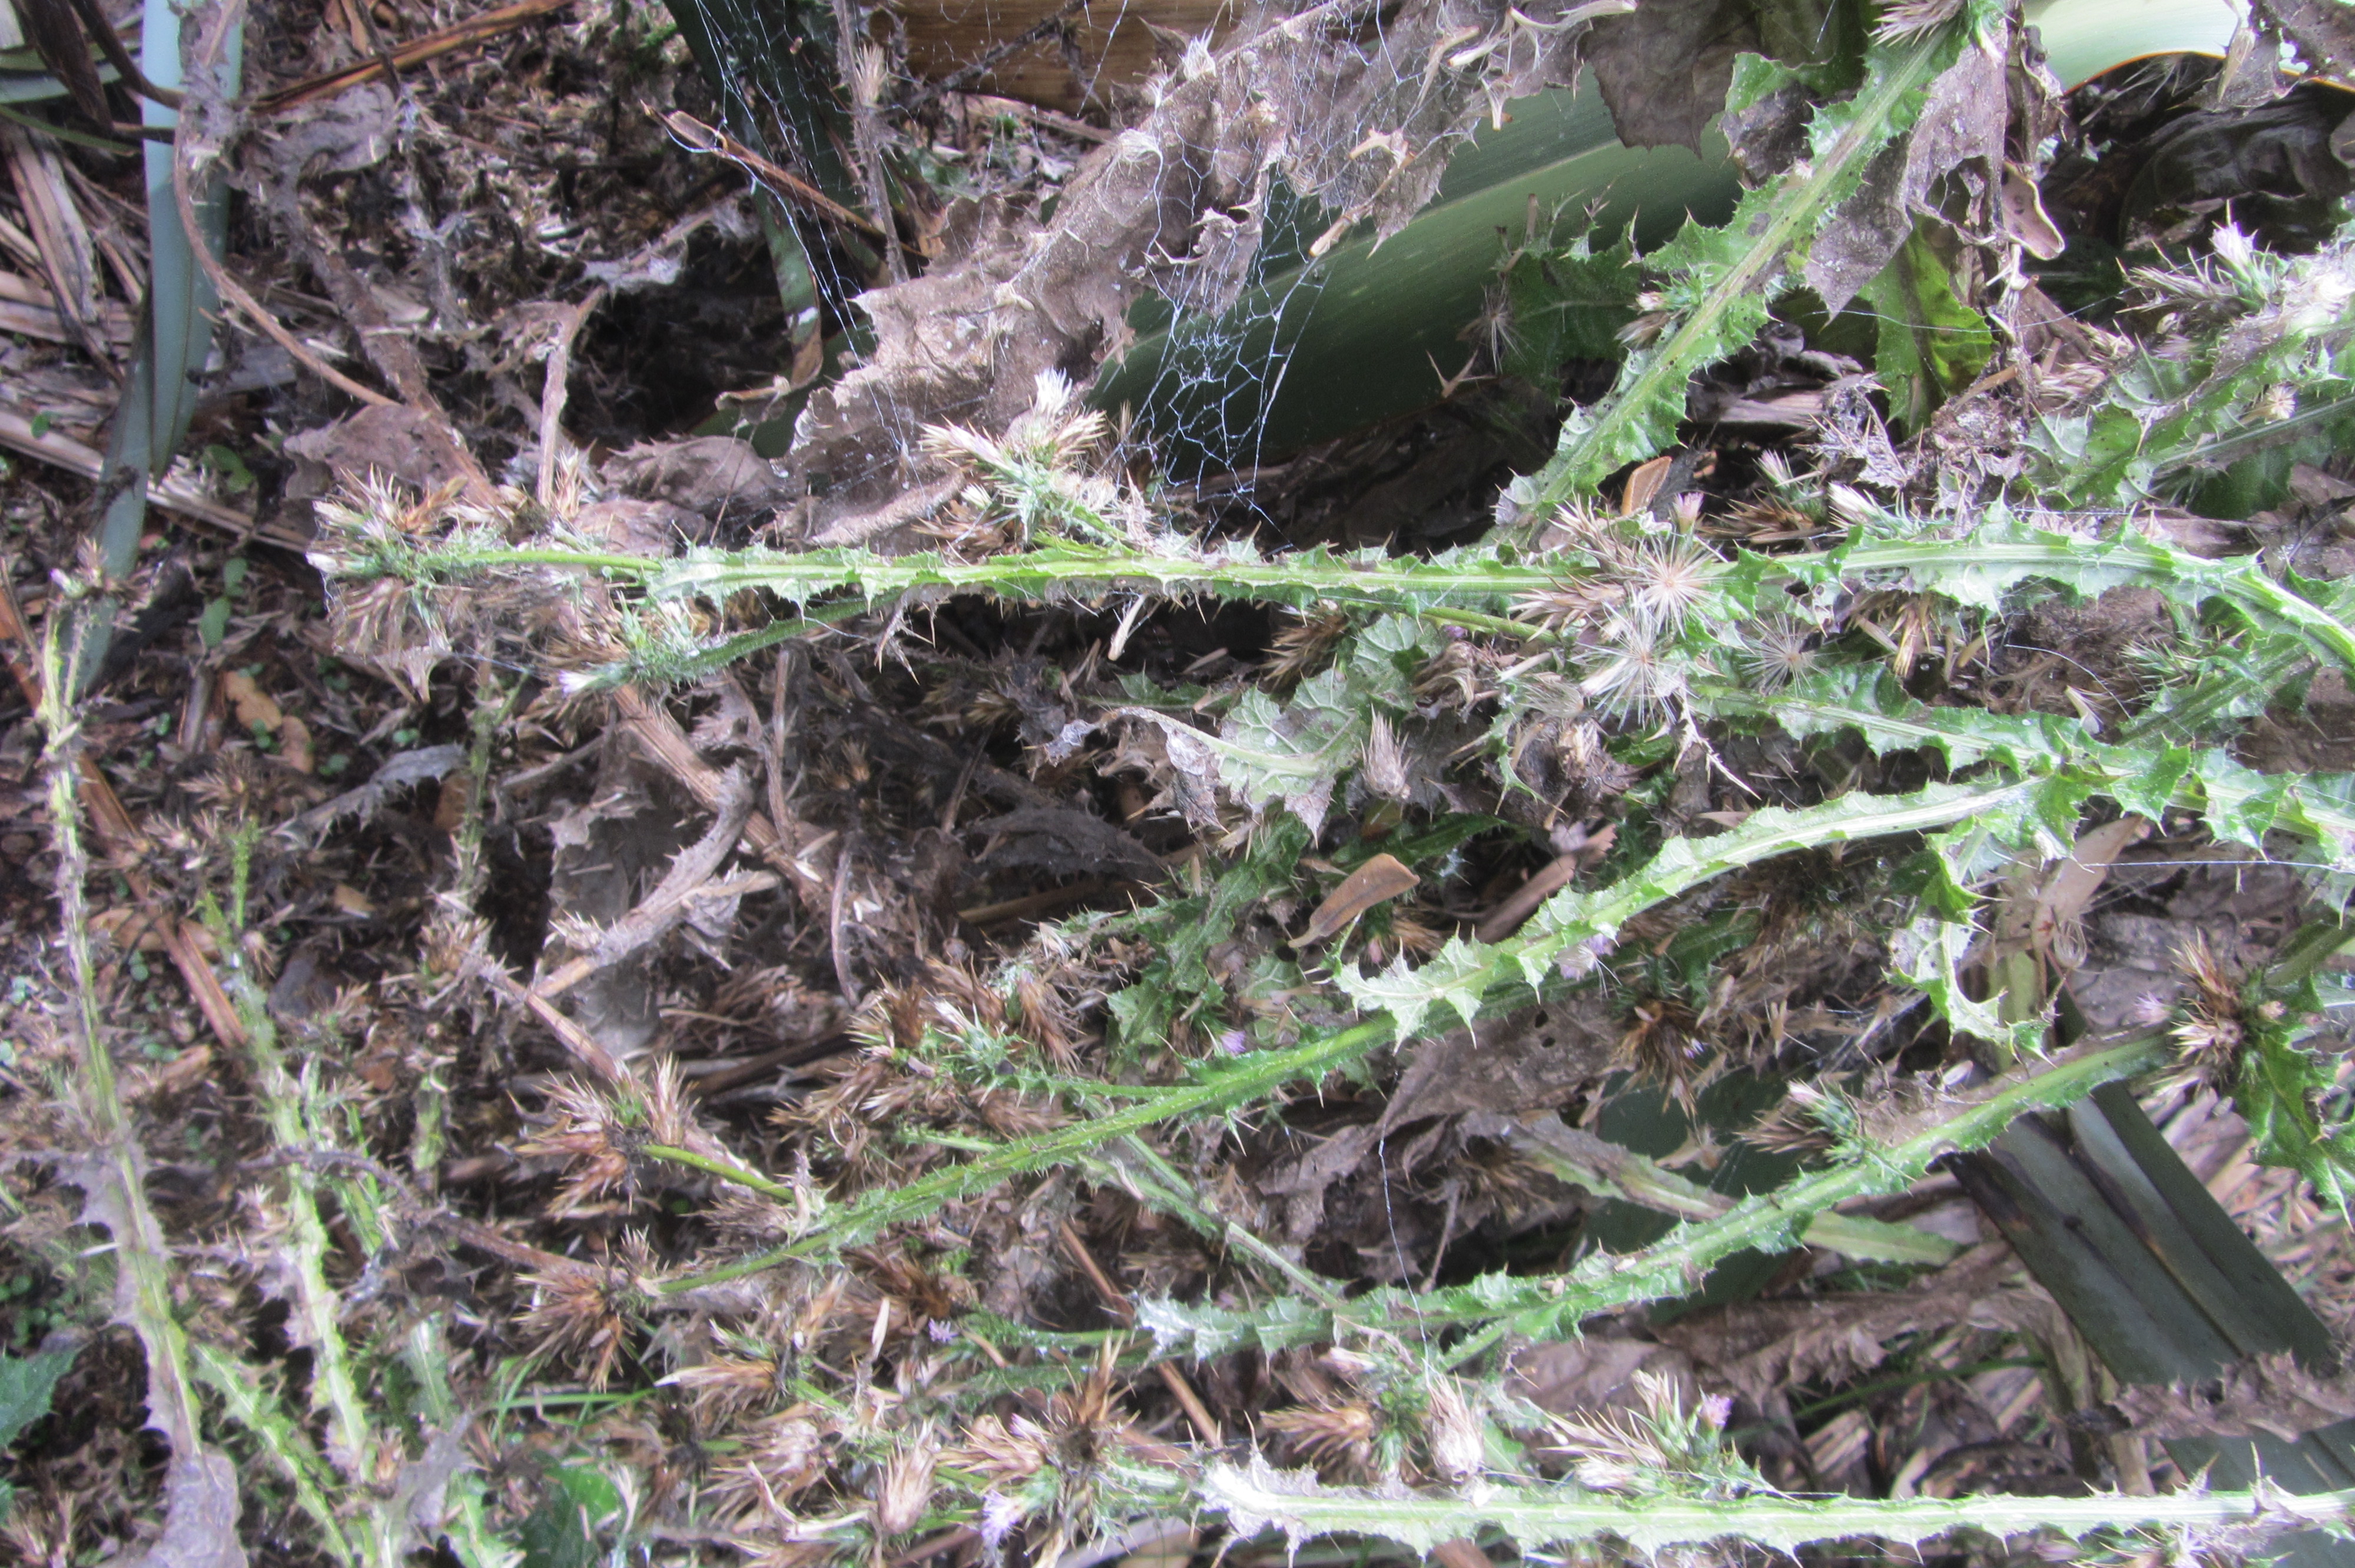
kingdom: Plantae
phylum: Tracheophyta
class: Magnoliopsida
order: Asterales
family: Asteraceae
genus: Carduus
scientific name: Carduus tenuiflorus
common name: Slender thistle
